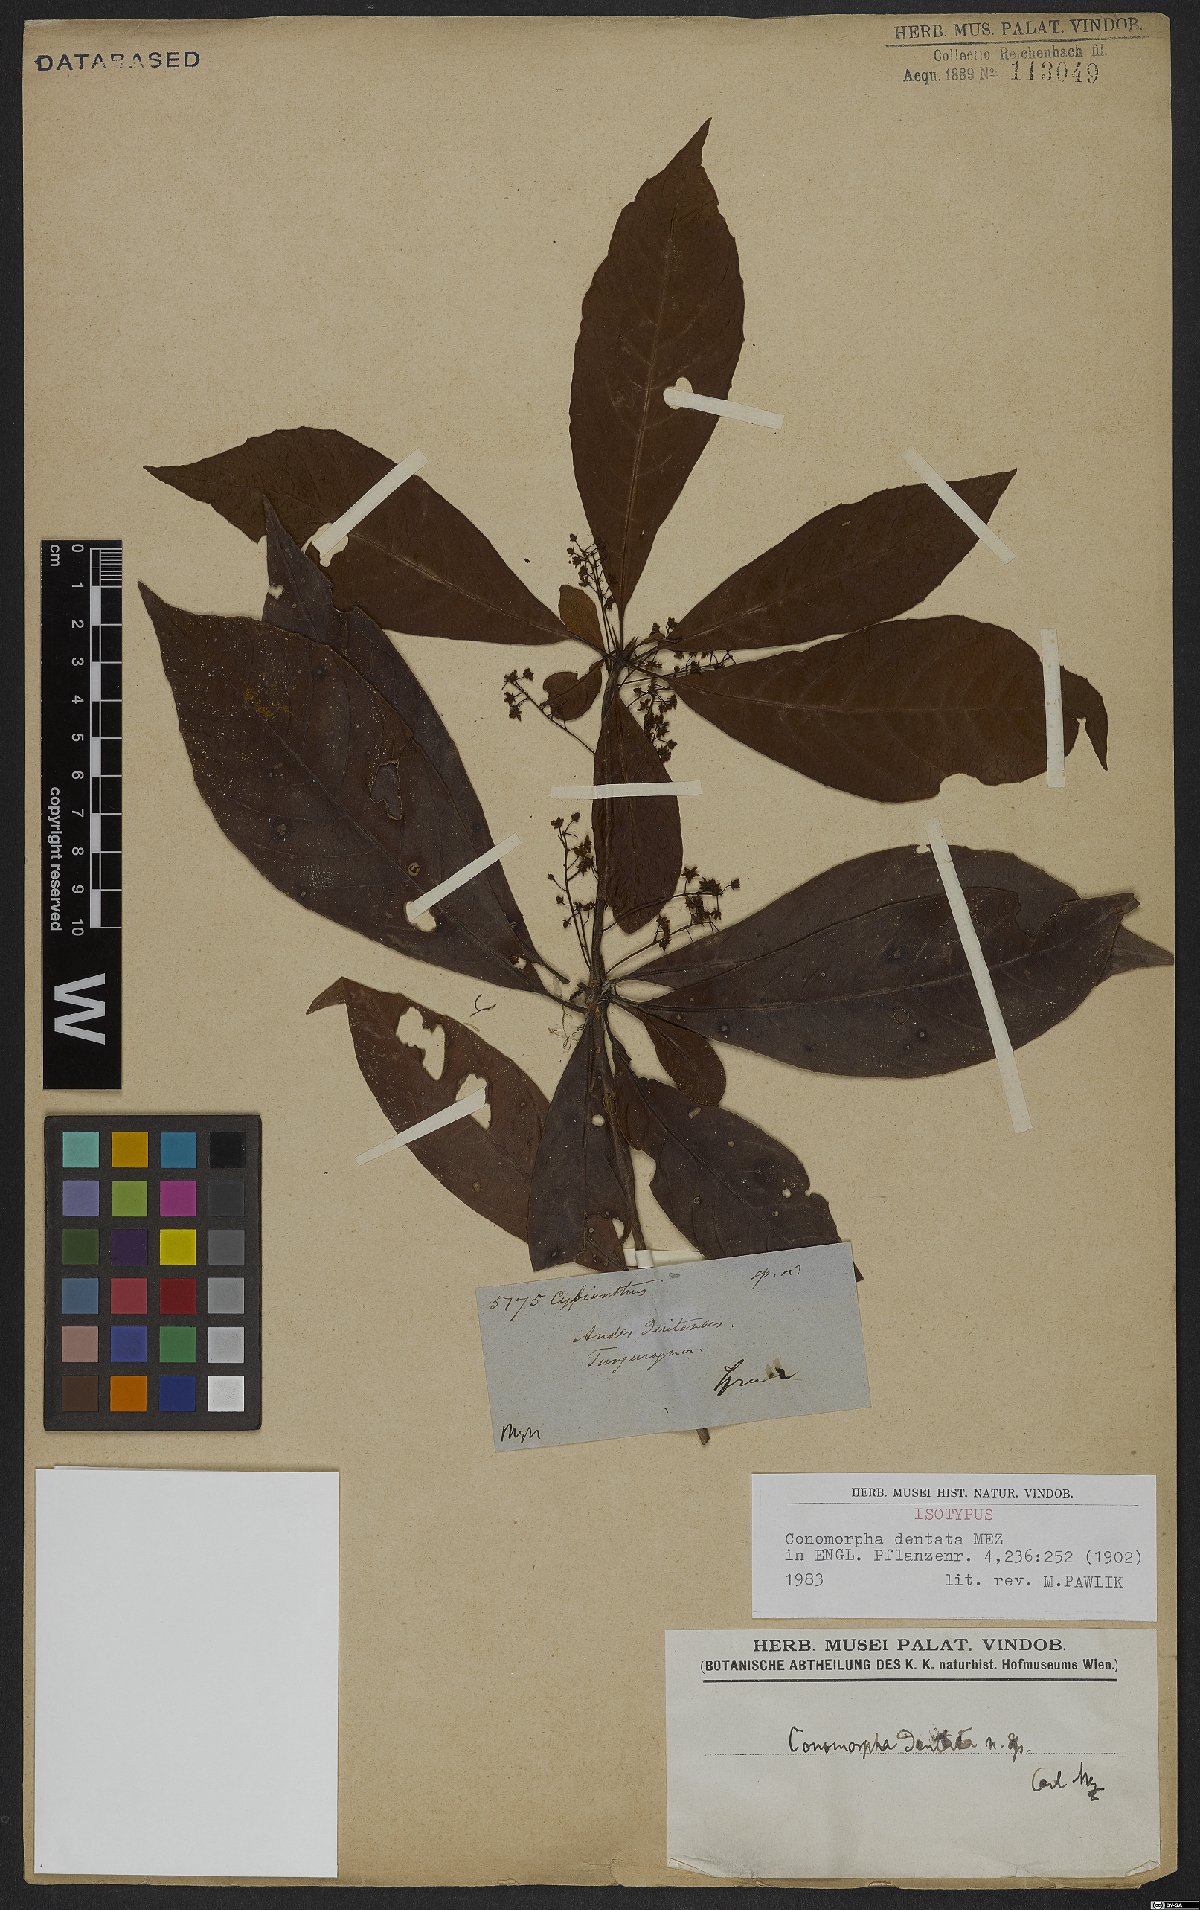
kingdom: Plantae
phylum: Tracheophyta
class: Magnoliopsida
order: Ericales
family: Primulaceae
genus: Cybianthus
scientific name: Cybianthus pastensis
